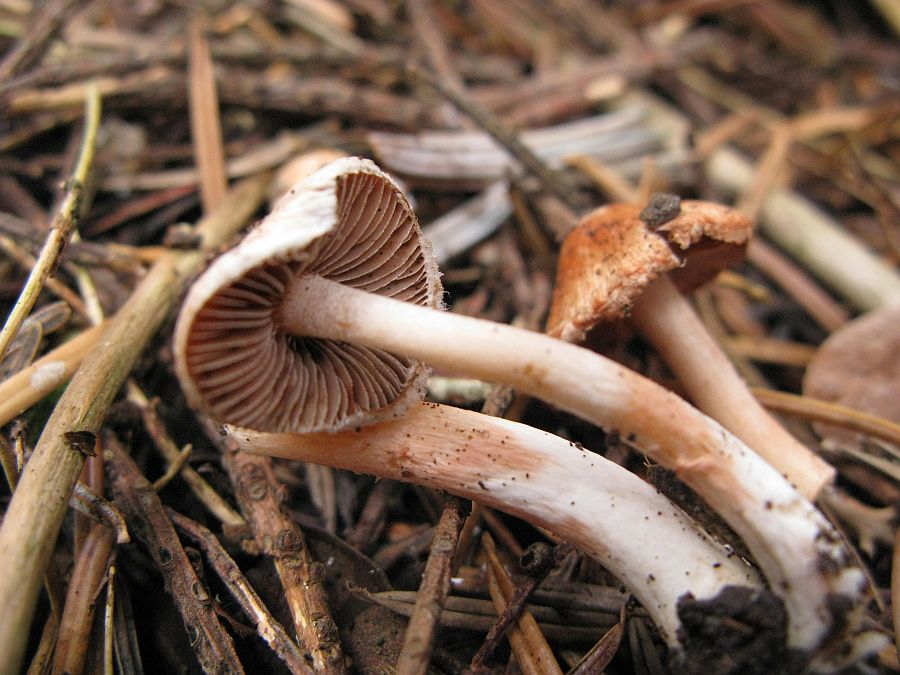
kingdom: Fungi
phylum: Basidiomycota
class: Agaricomycetes
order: Agaricales
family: Inocybaceae
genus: Inocybe
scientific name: Inocybe
